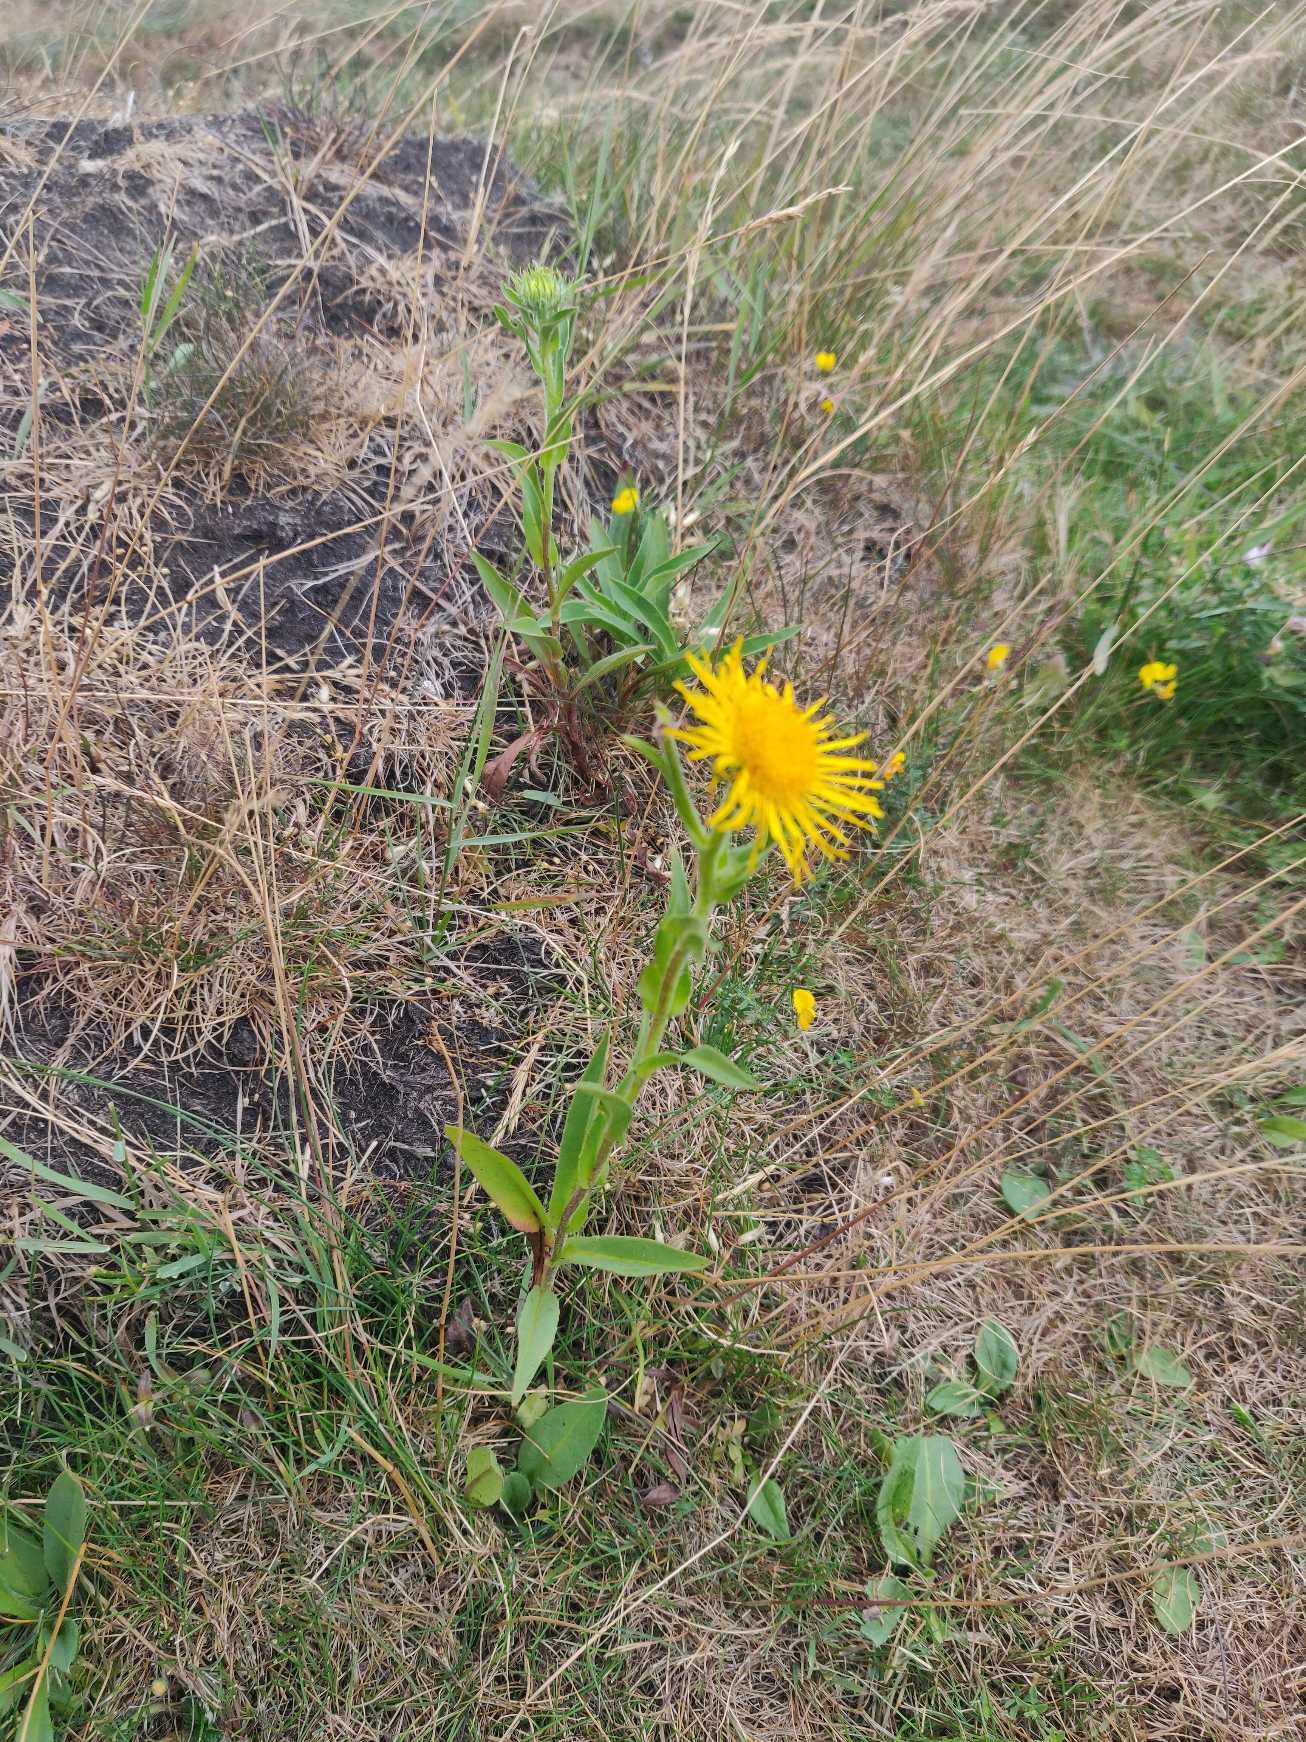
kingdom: Plantae
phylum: Tracheophyta
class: Magnoliopsida
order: Asterales
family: Asteraceae
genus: Pentanema
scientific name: Pentanema britannicum
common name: Soløje-alant
